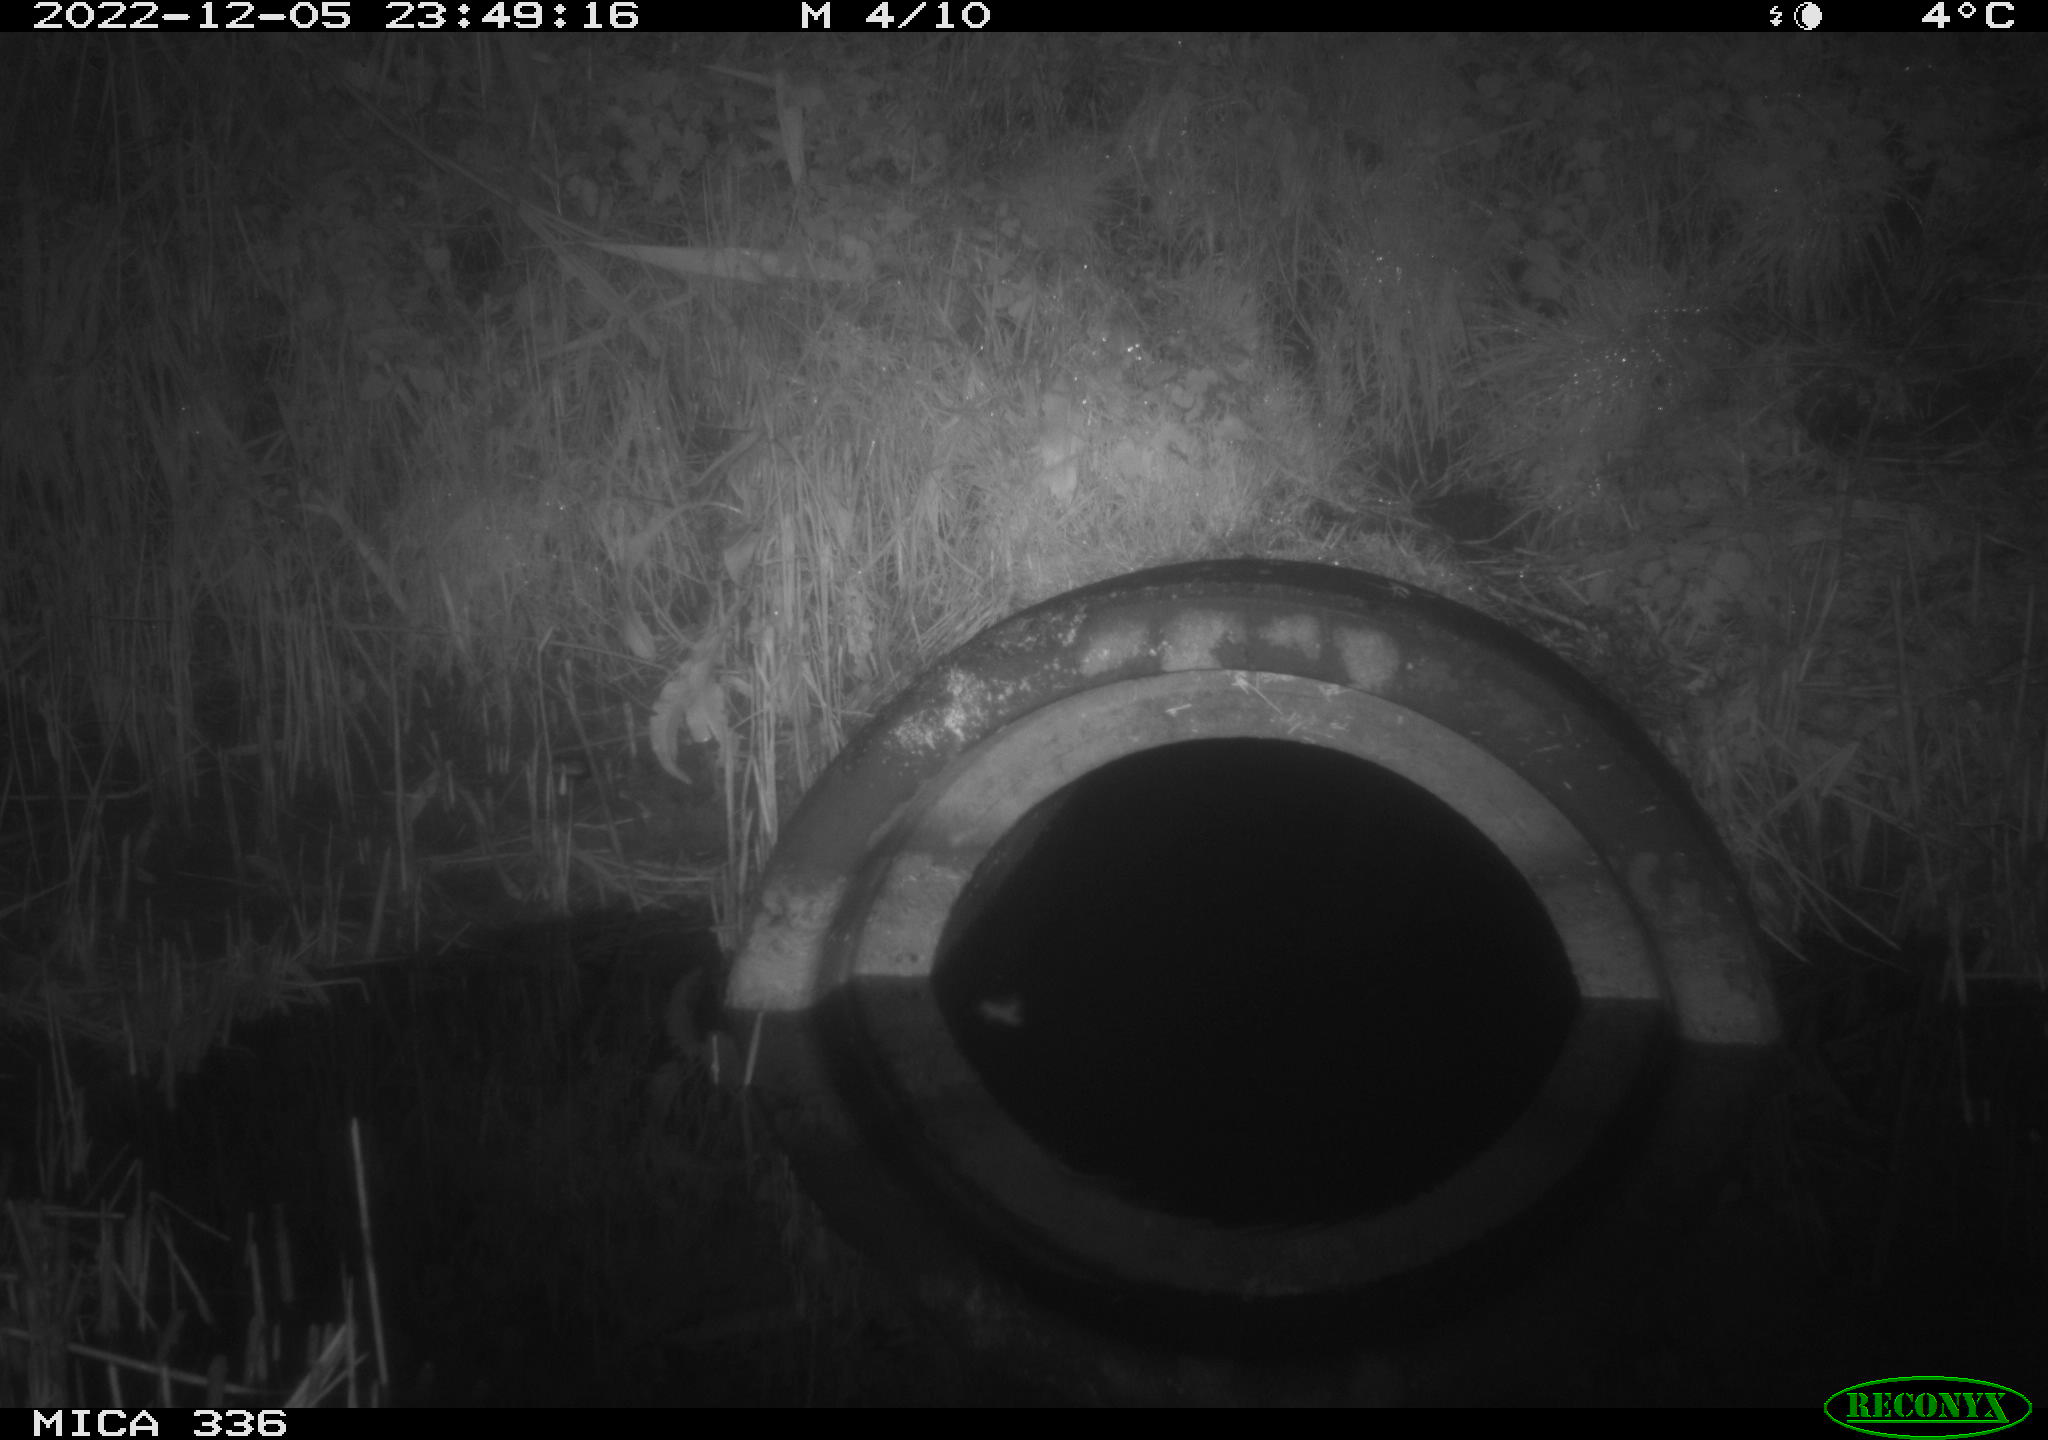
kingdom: Animalia
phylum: Chordata
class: Mammalia
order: Rodentia
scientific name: Rodentia
